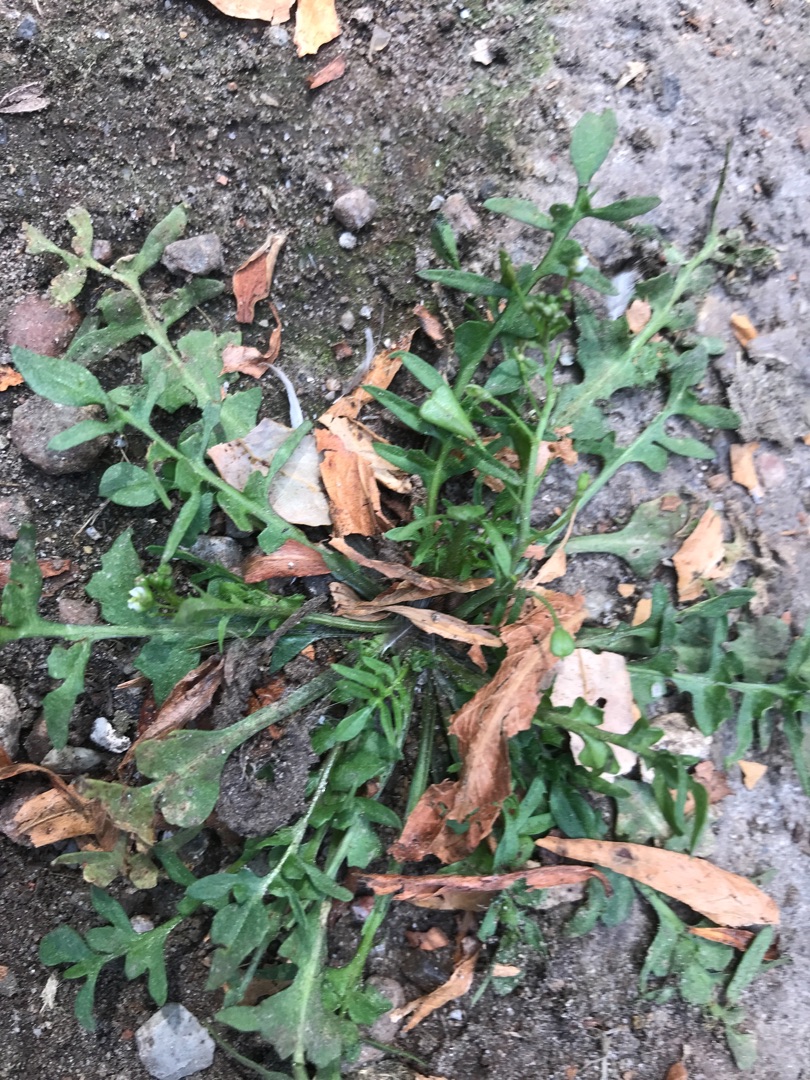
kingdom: Plantae
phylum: Tracheophyta
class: Magnoliopsida
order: Brassicales
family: Brassicaceae
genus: Lepidium
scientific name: Lepidium coronopus
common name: Ravnefod
